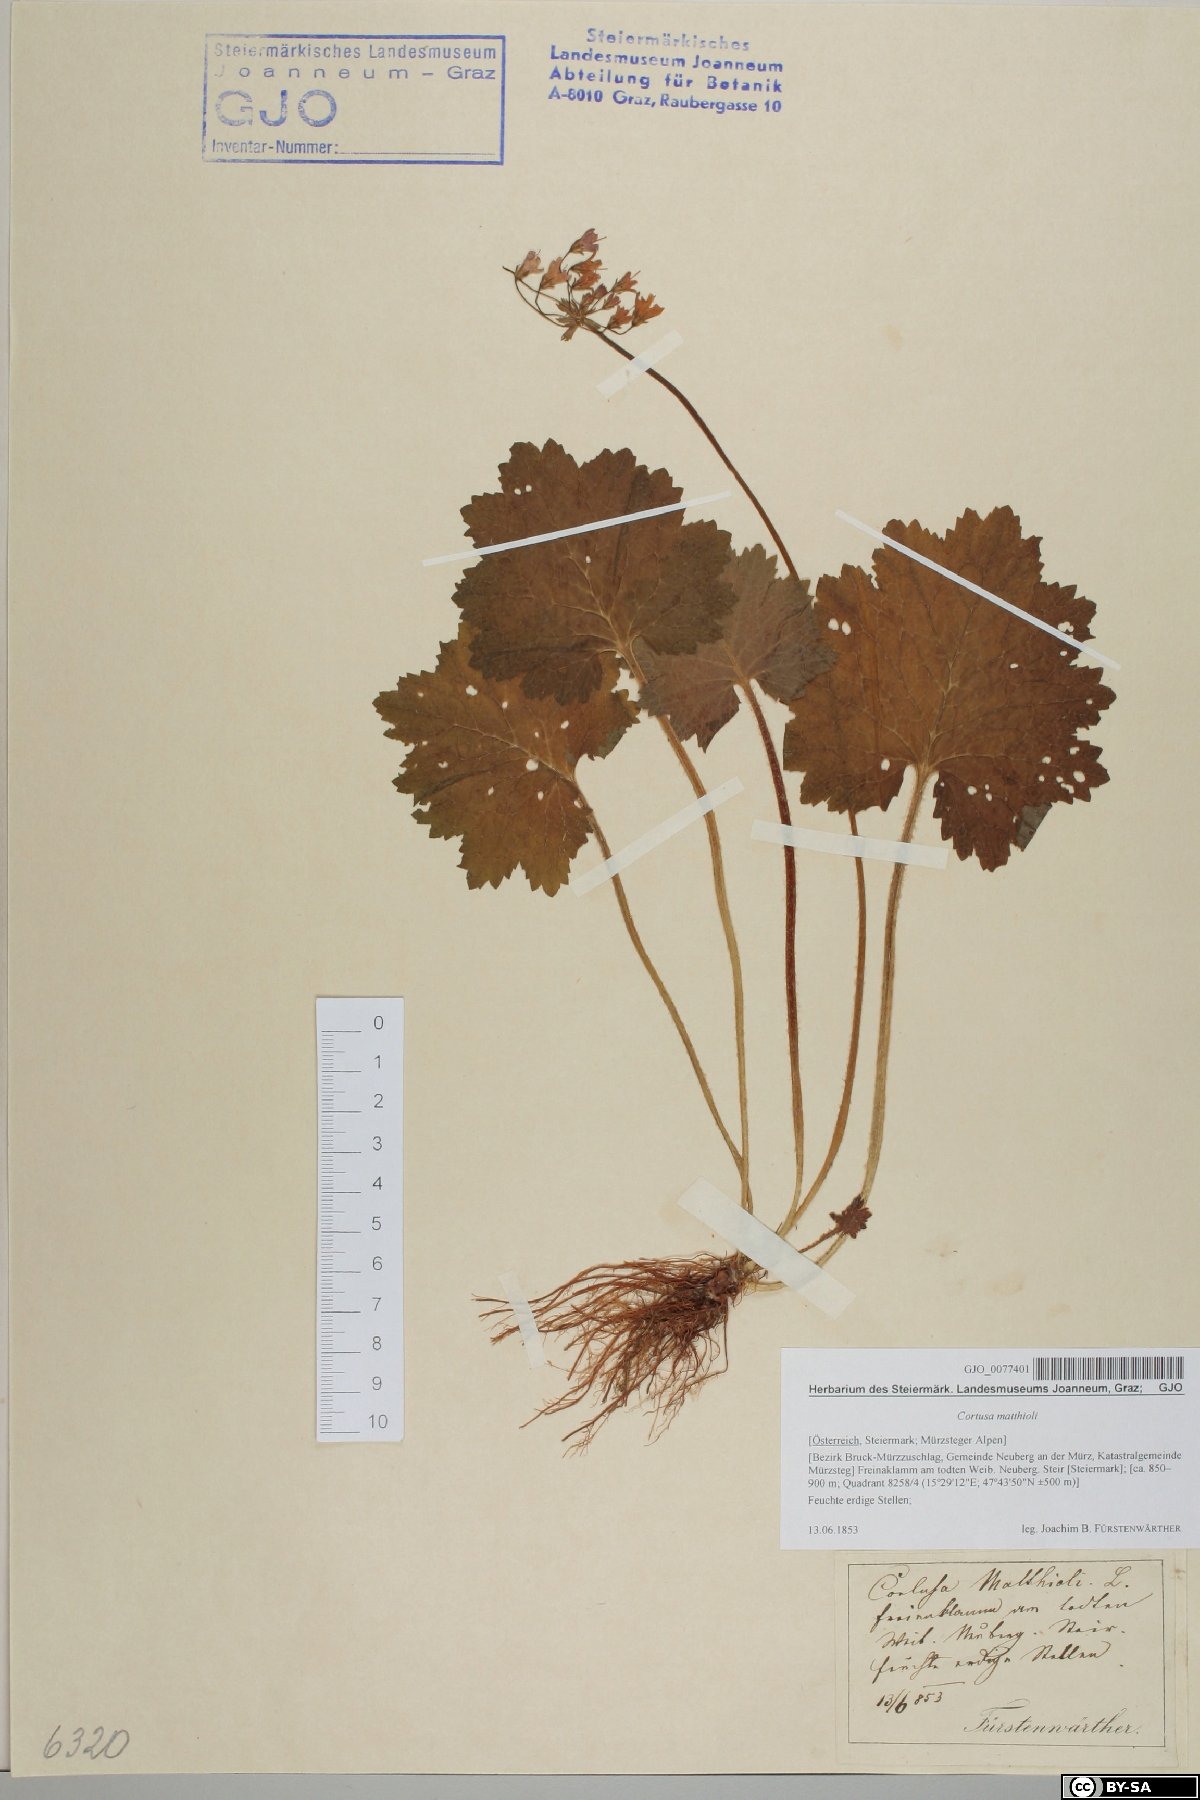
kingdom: Plantae
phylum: Tracheophyta
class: Magnoliopsida
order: Ericales
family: Primulaceae
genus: Primula
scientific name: Primula matthioli
